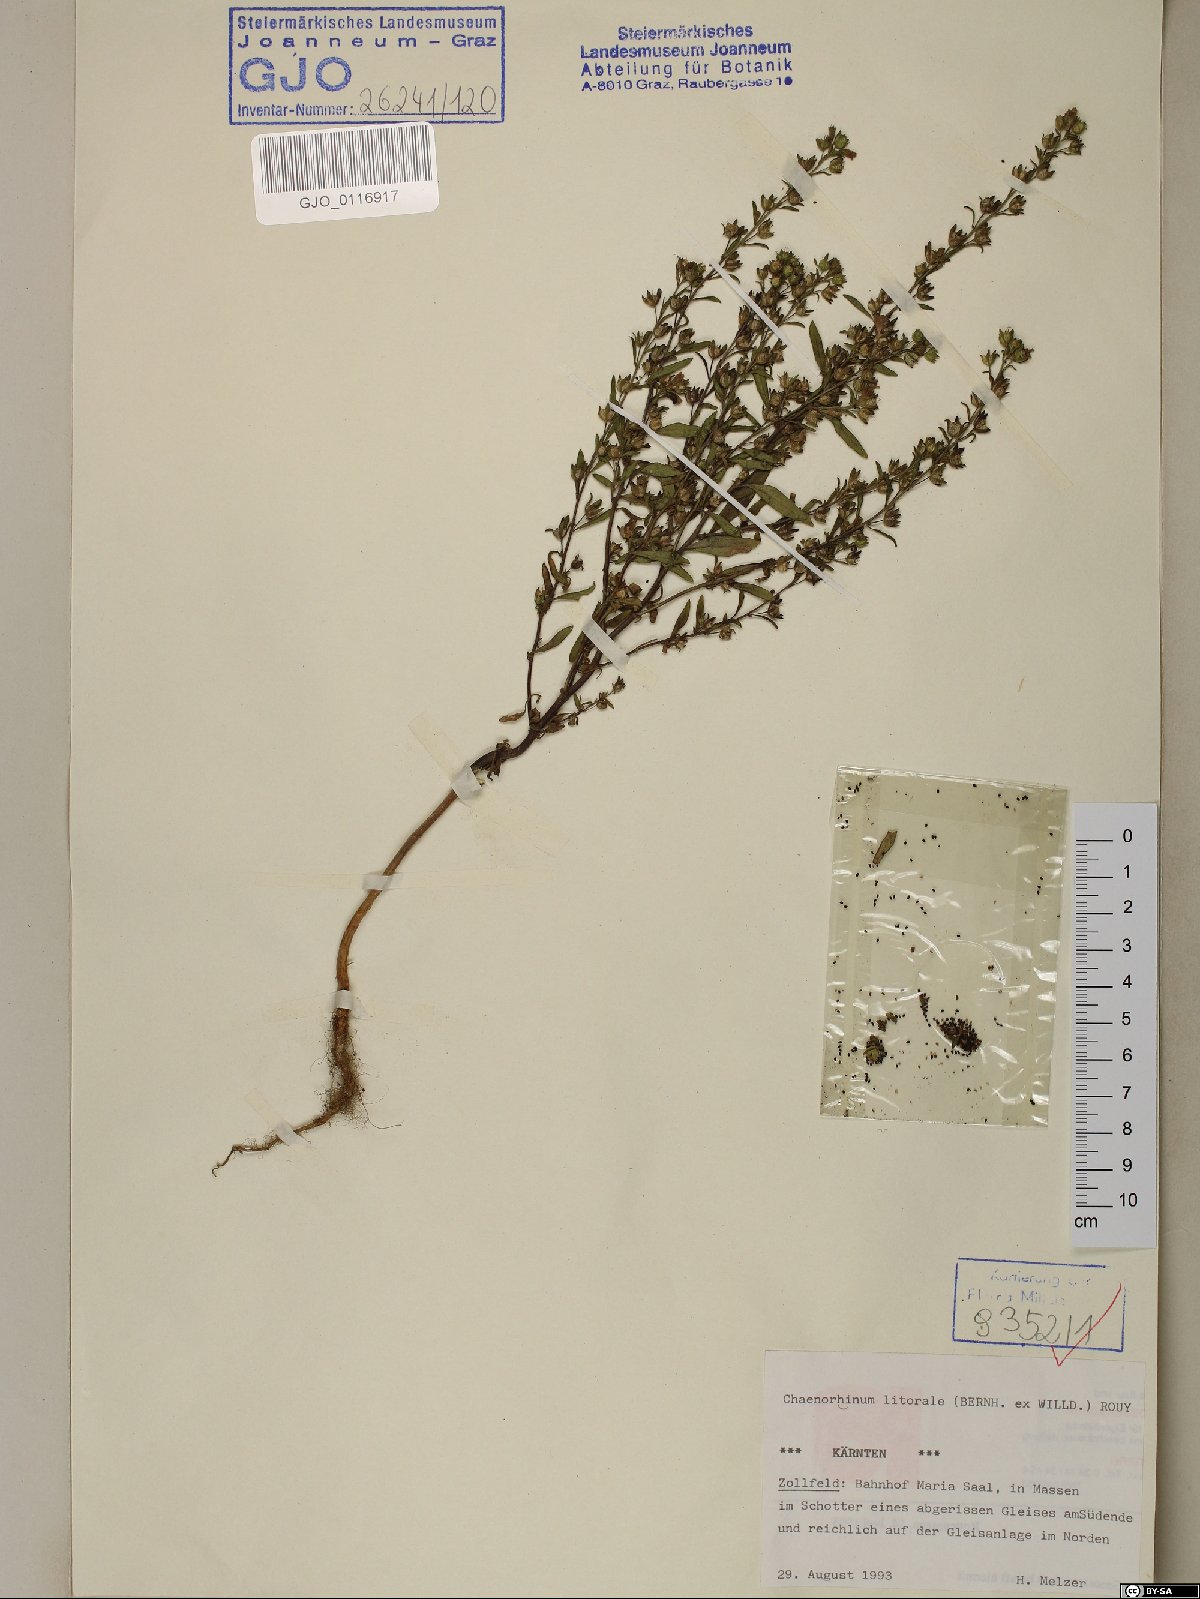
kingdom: Plantae
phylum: Tracheophyta
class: Magnoliopsida
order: Lamiales
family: Plantaginaceae
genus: Chaenorhinum
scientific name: Chaenorhinum litorale
